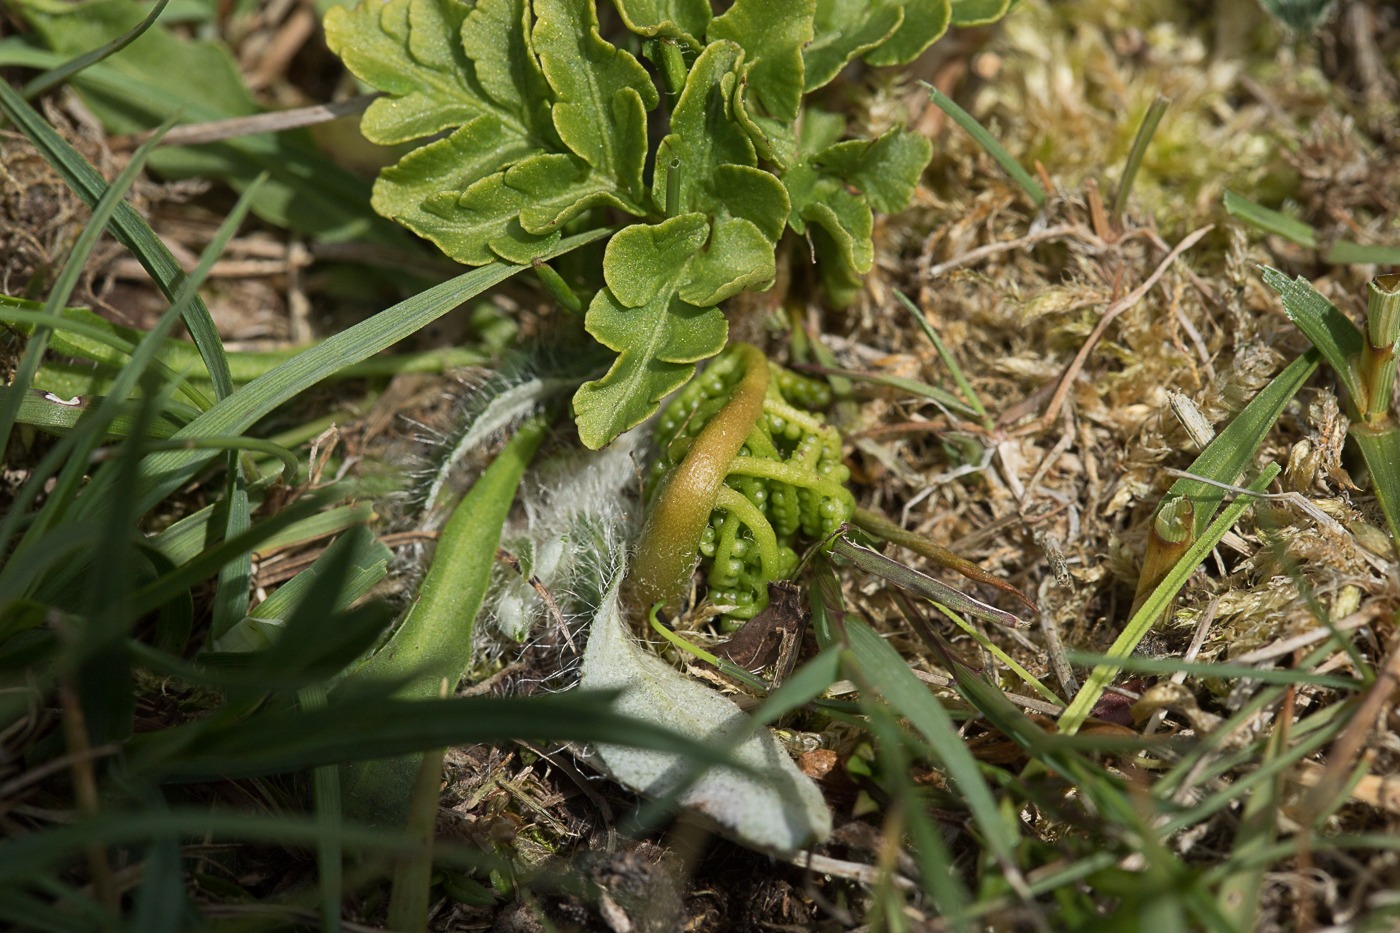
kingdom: Plantae
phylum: Tracheophyta
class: Polypodiopsida
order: Ophioglossales
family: Ophioglossaceae
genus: Sceptridium
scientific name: Sceptridium multifidum
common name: Stilk-månerude
